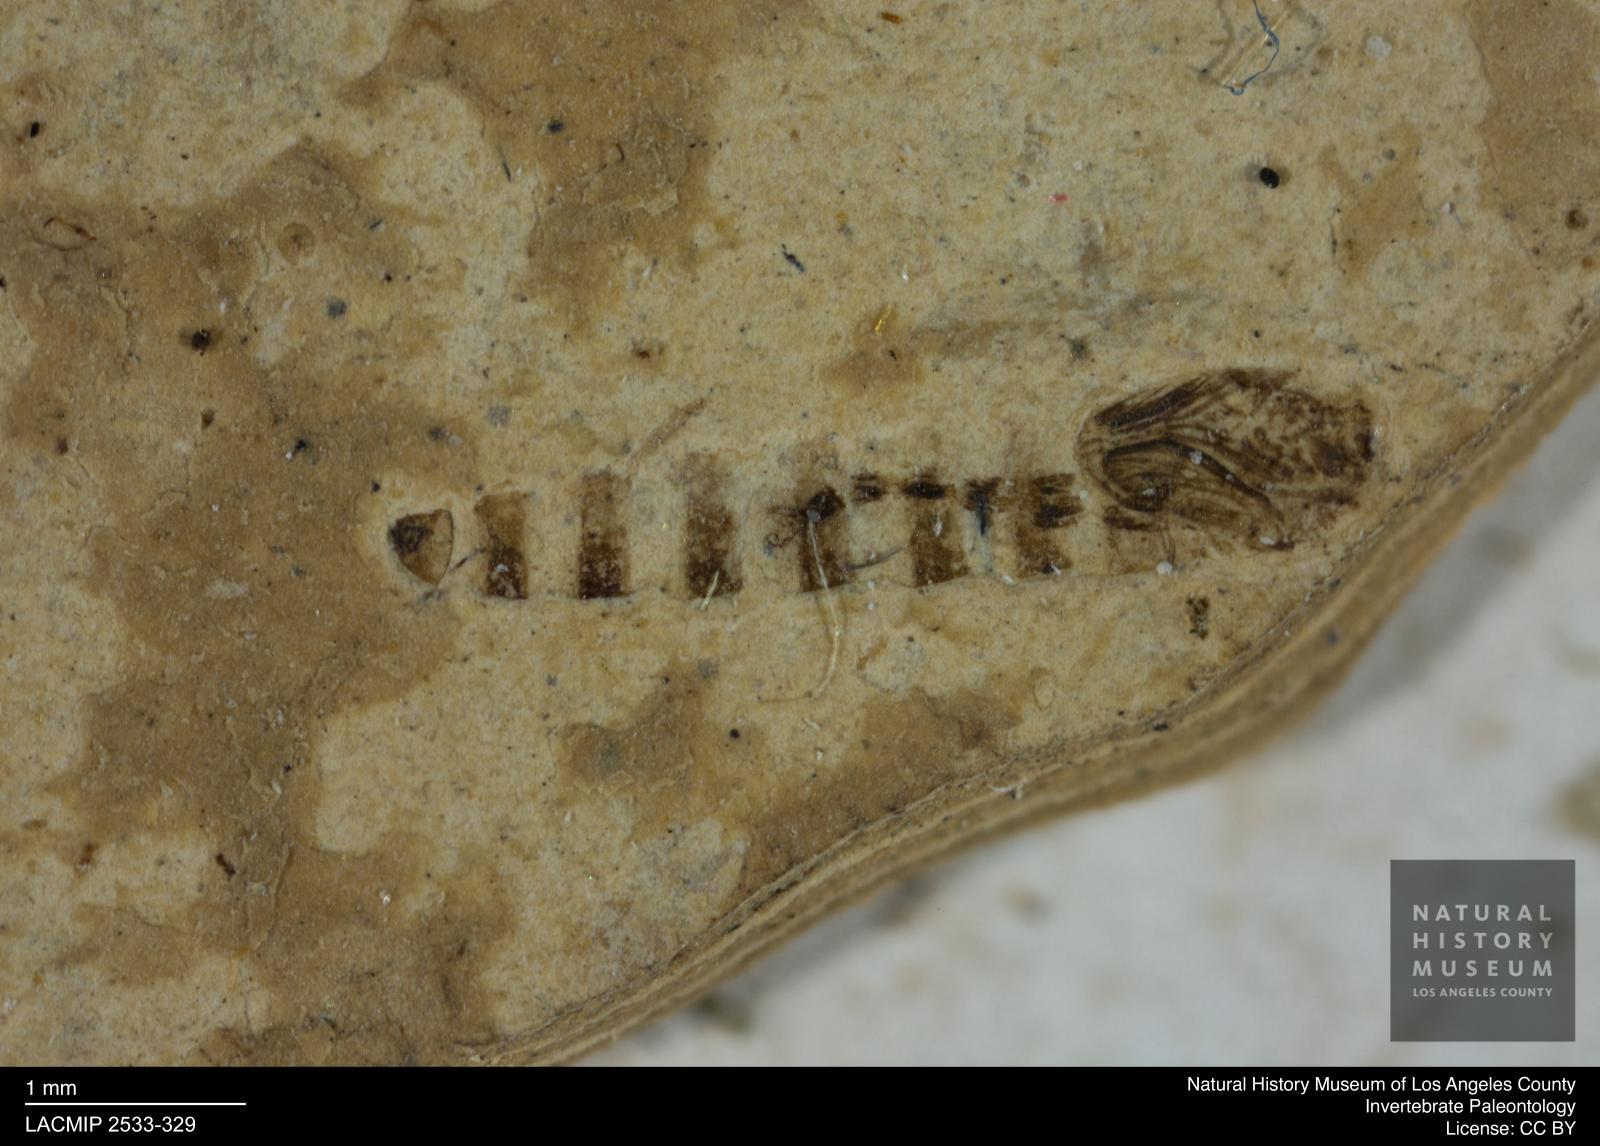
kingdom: Animalia
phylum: Arthropoda
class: Insecta
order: Diptera
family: Ceratopogonidae
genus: Ceratopogon
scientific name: Ceratopogon
